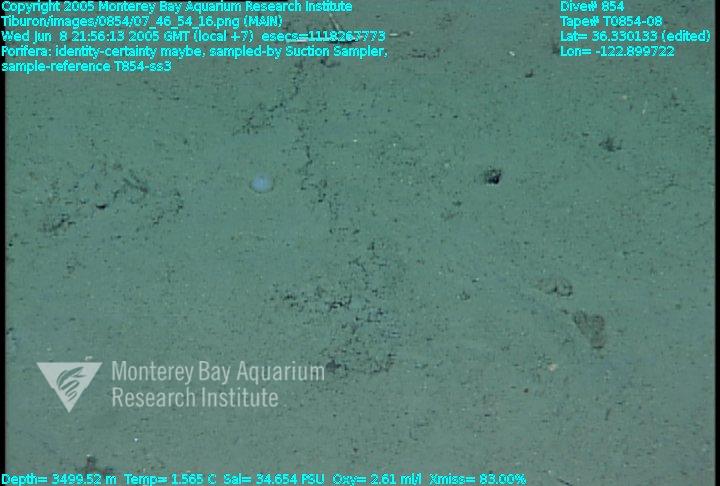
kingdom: Animalia
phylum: Porifera
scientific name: Porifera
